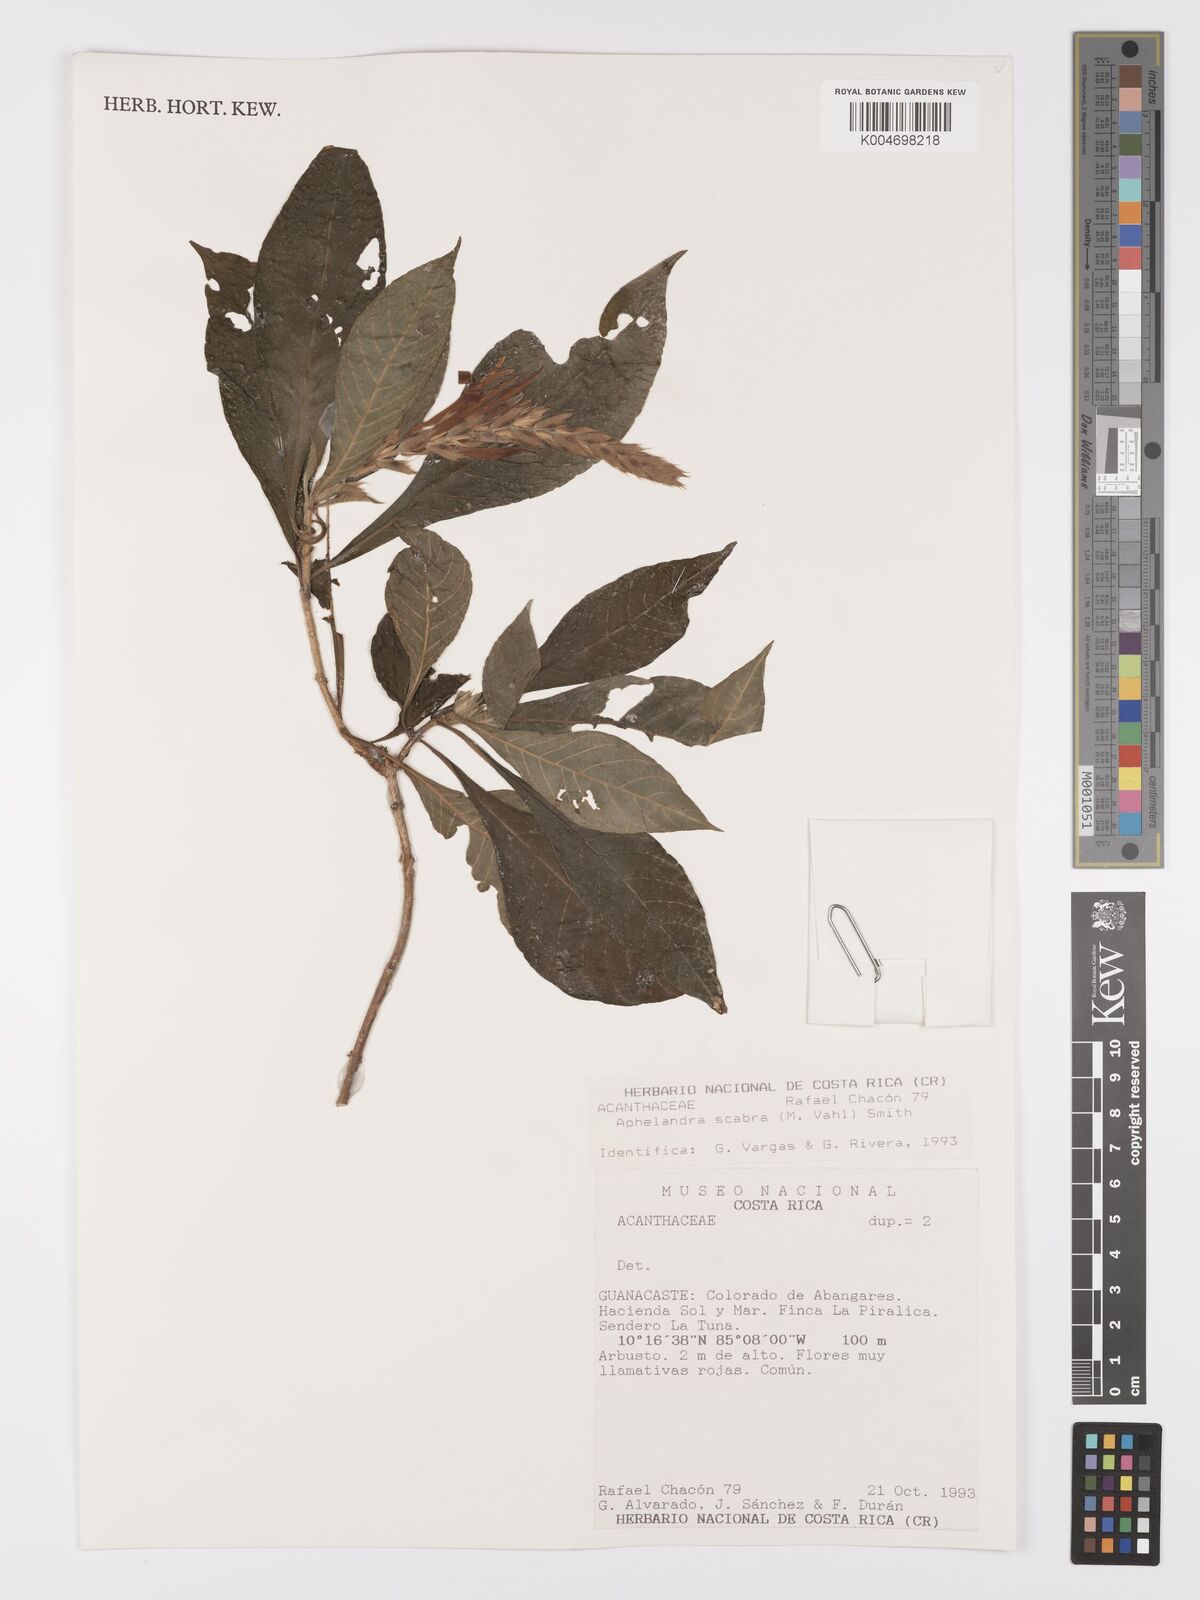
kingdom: Plantae
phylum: Tracheophyta
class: Magnoliopsida
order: Lamiales
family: Acanthaceae
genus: Aphelandra
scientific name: Aphelandra scabra
